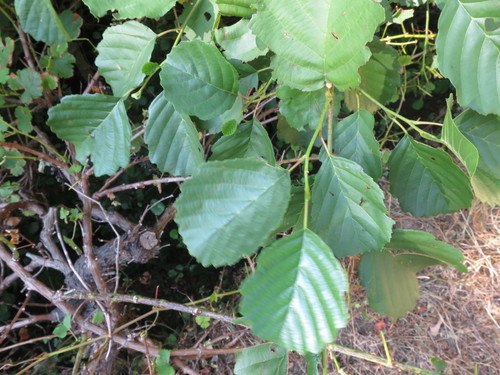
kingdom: Plantae
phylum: Tracheophyta
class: Magnoliopsida
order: Fagales
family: Betulaceae
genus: Alnus
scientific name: Alnus lusitanica
